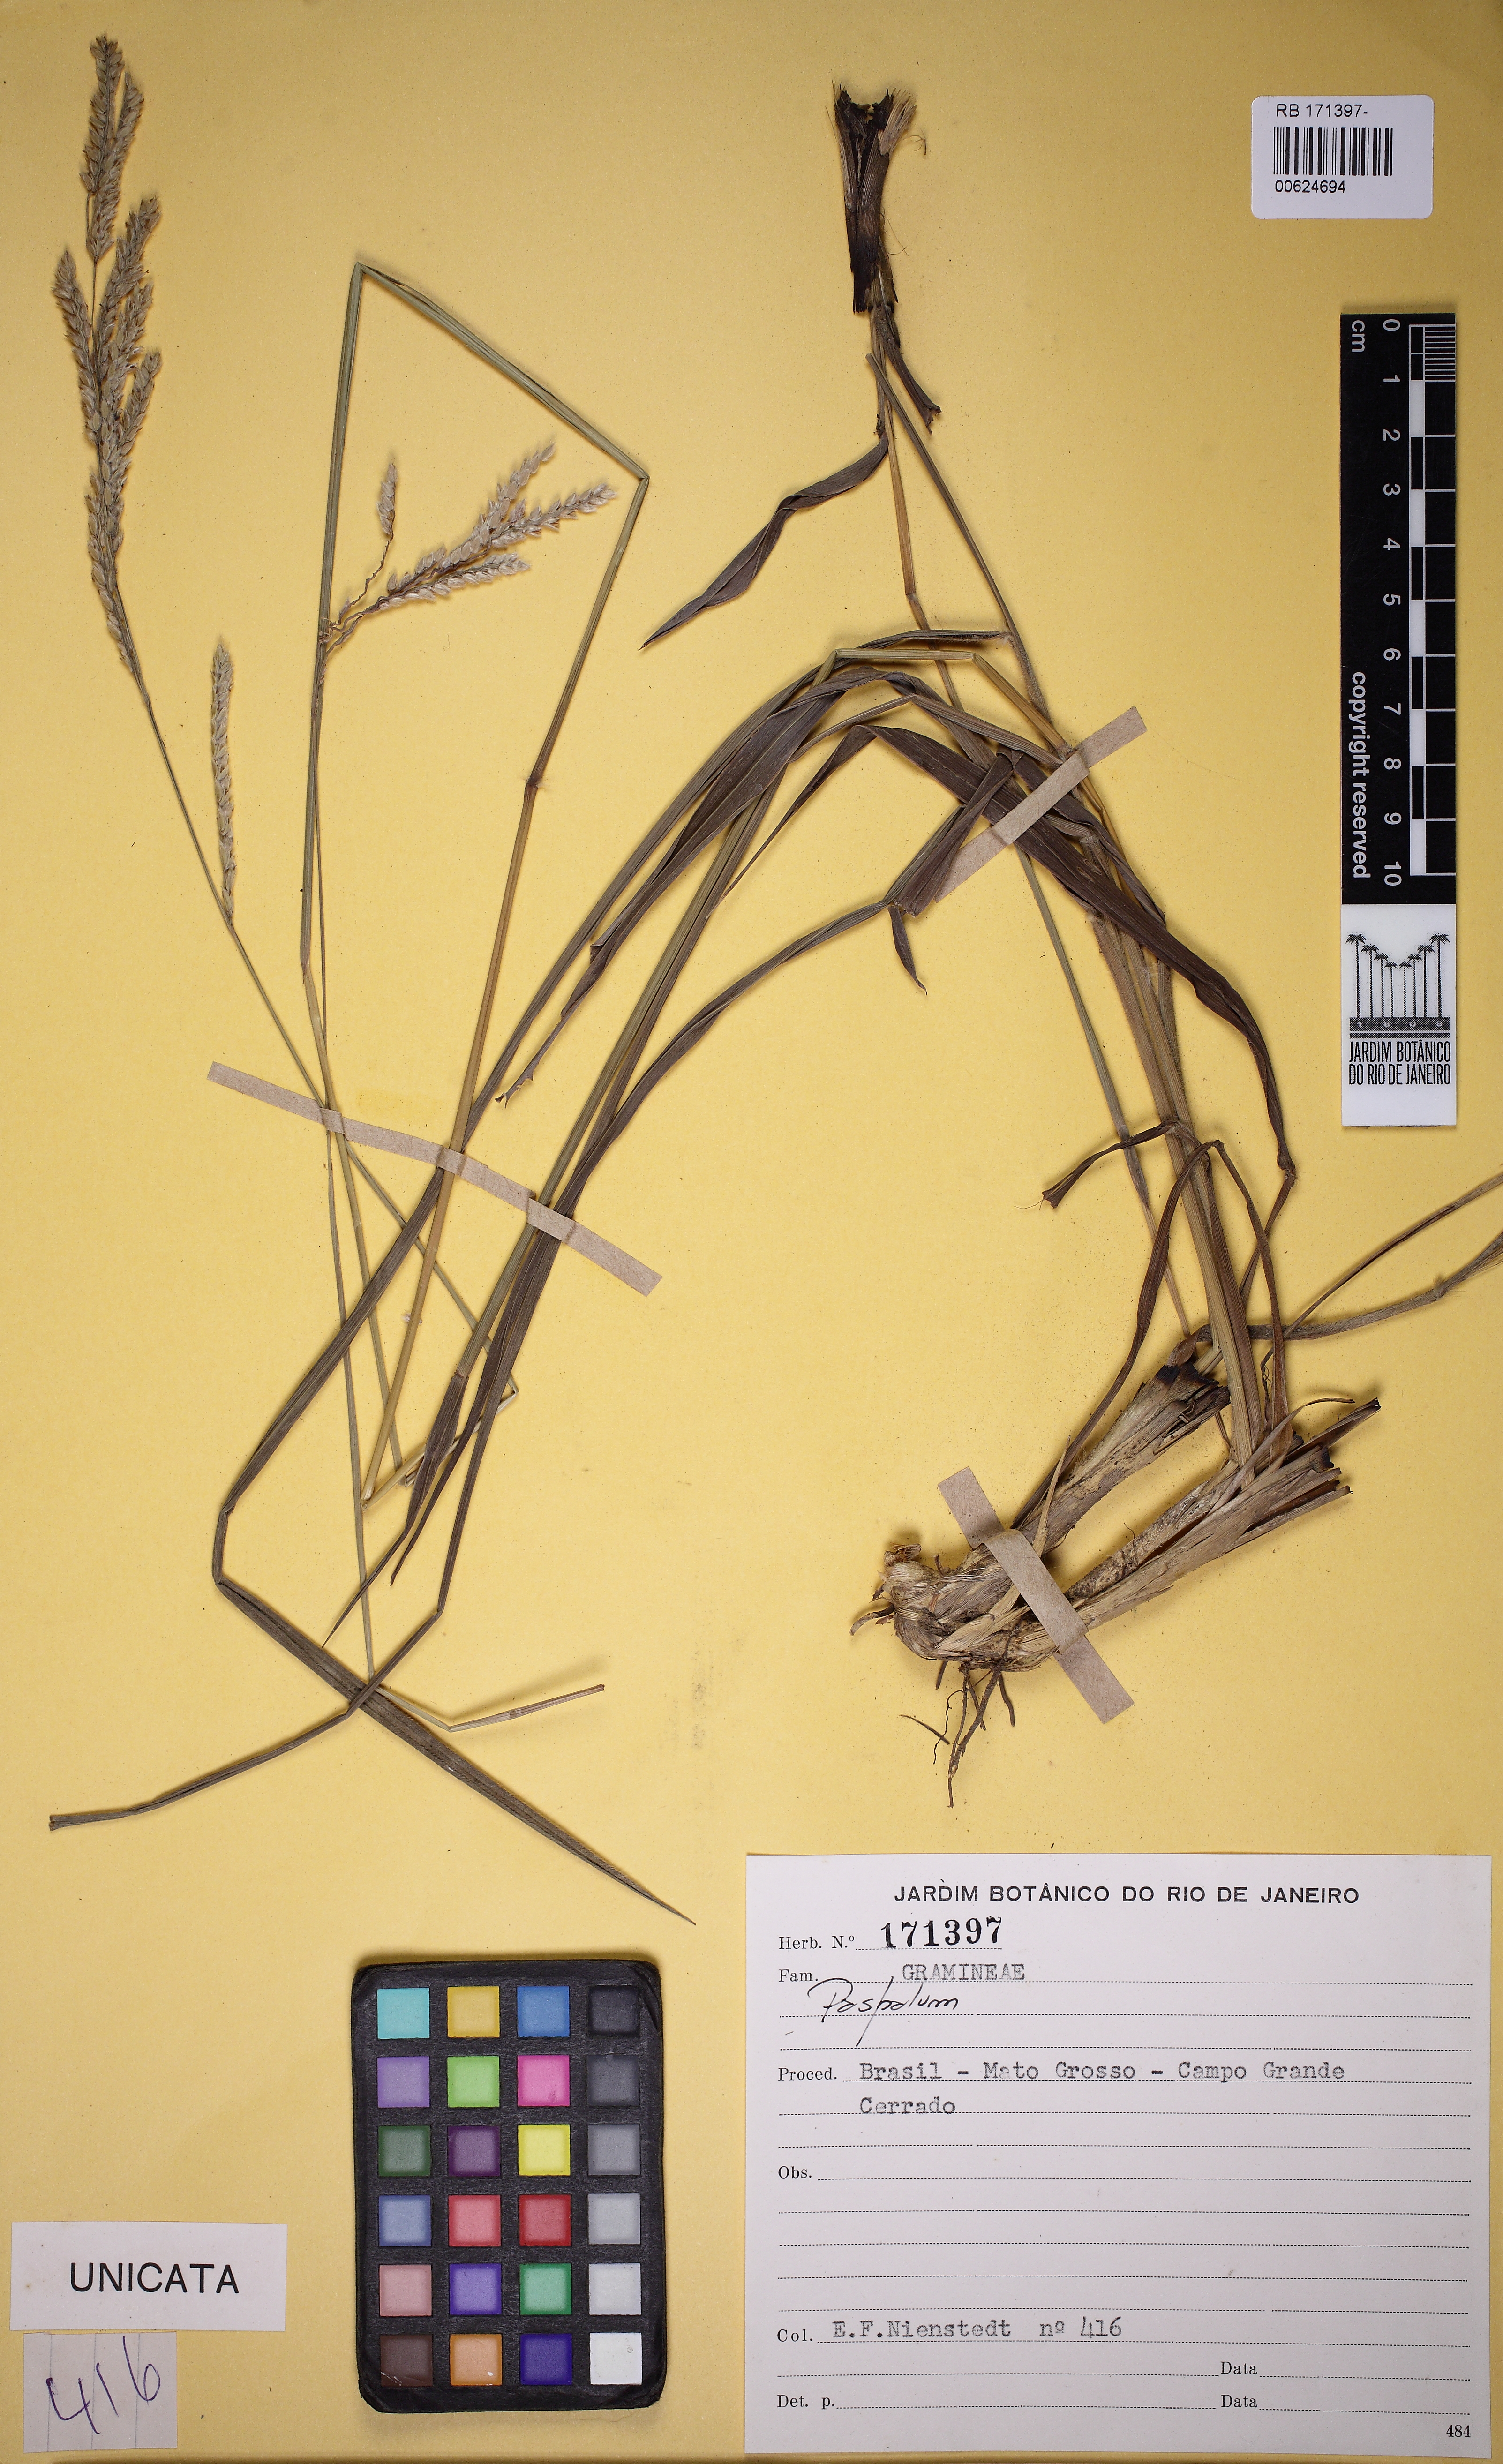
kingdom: Plantae
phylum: Tracheophyta
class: Liliopsida
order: Poales
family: Poaceae
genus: Paspalum
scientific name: Paspalum
